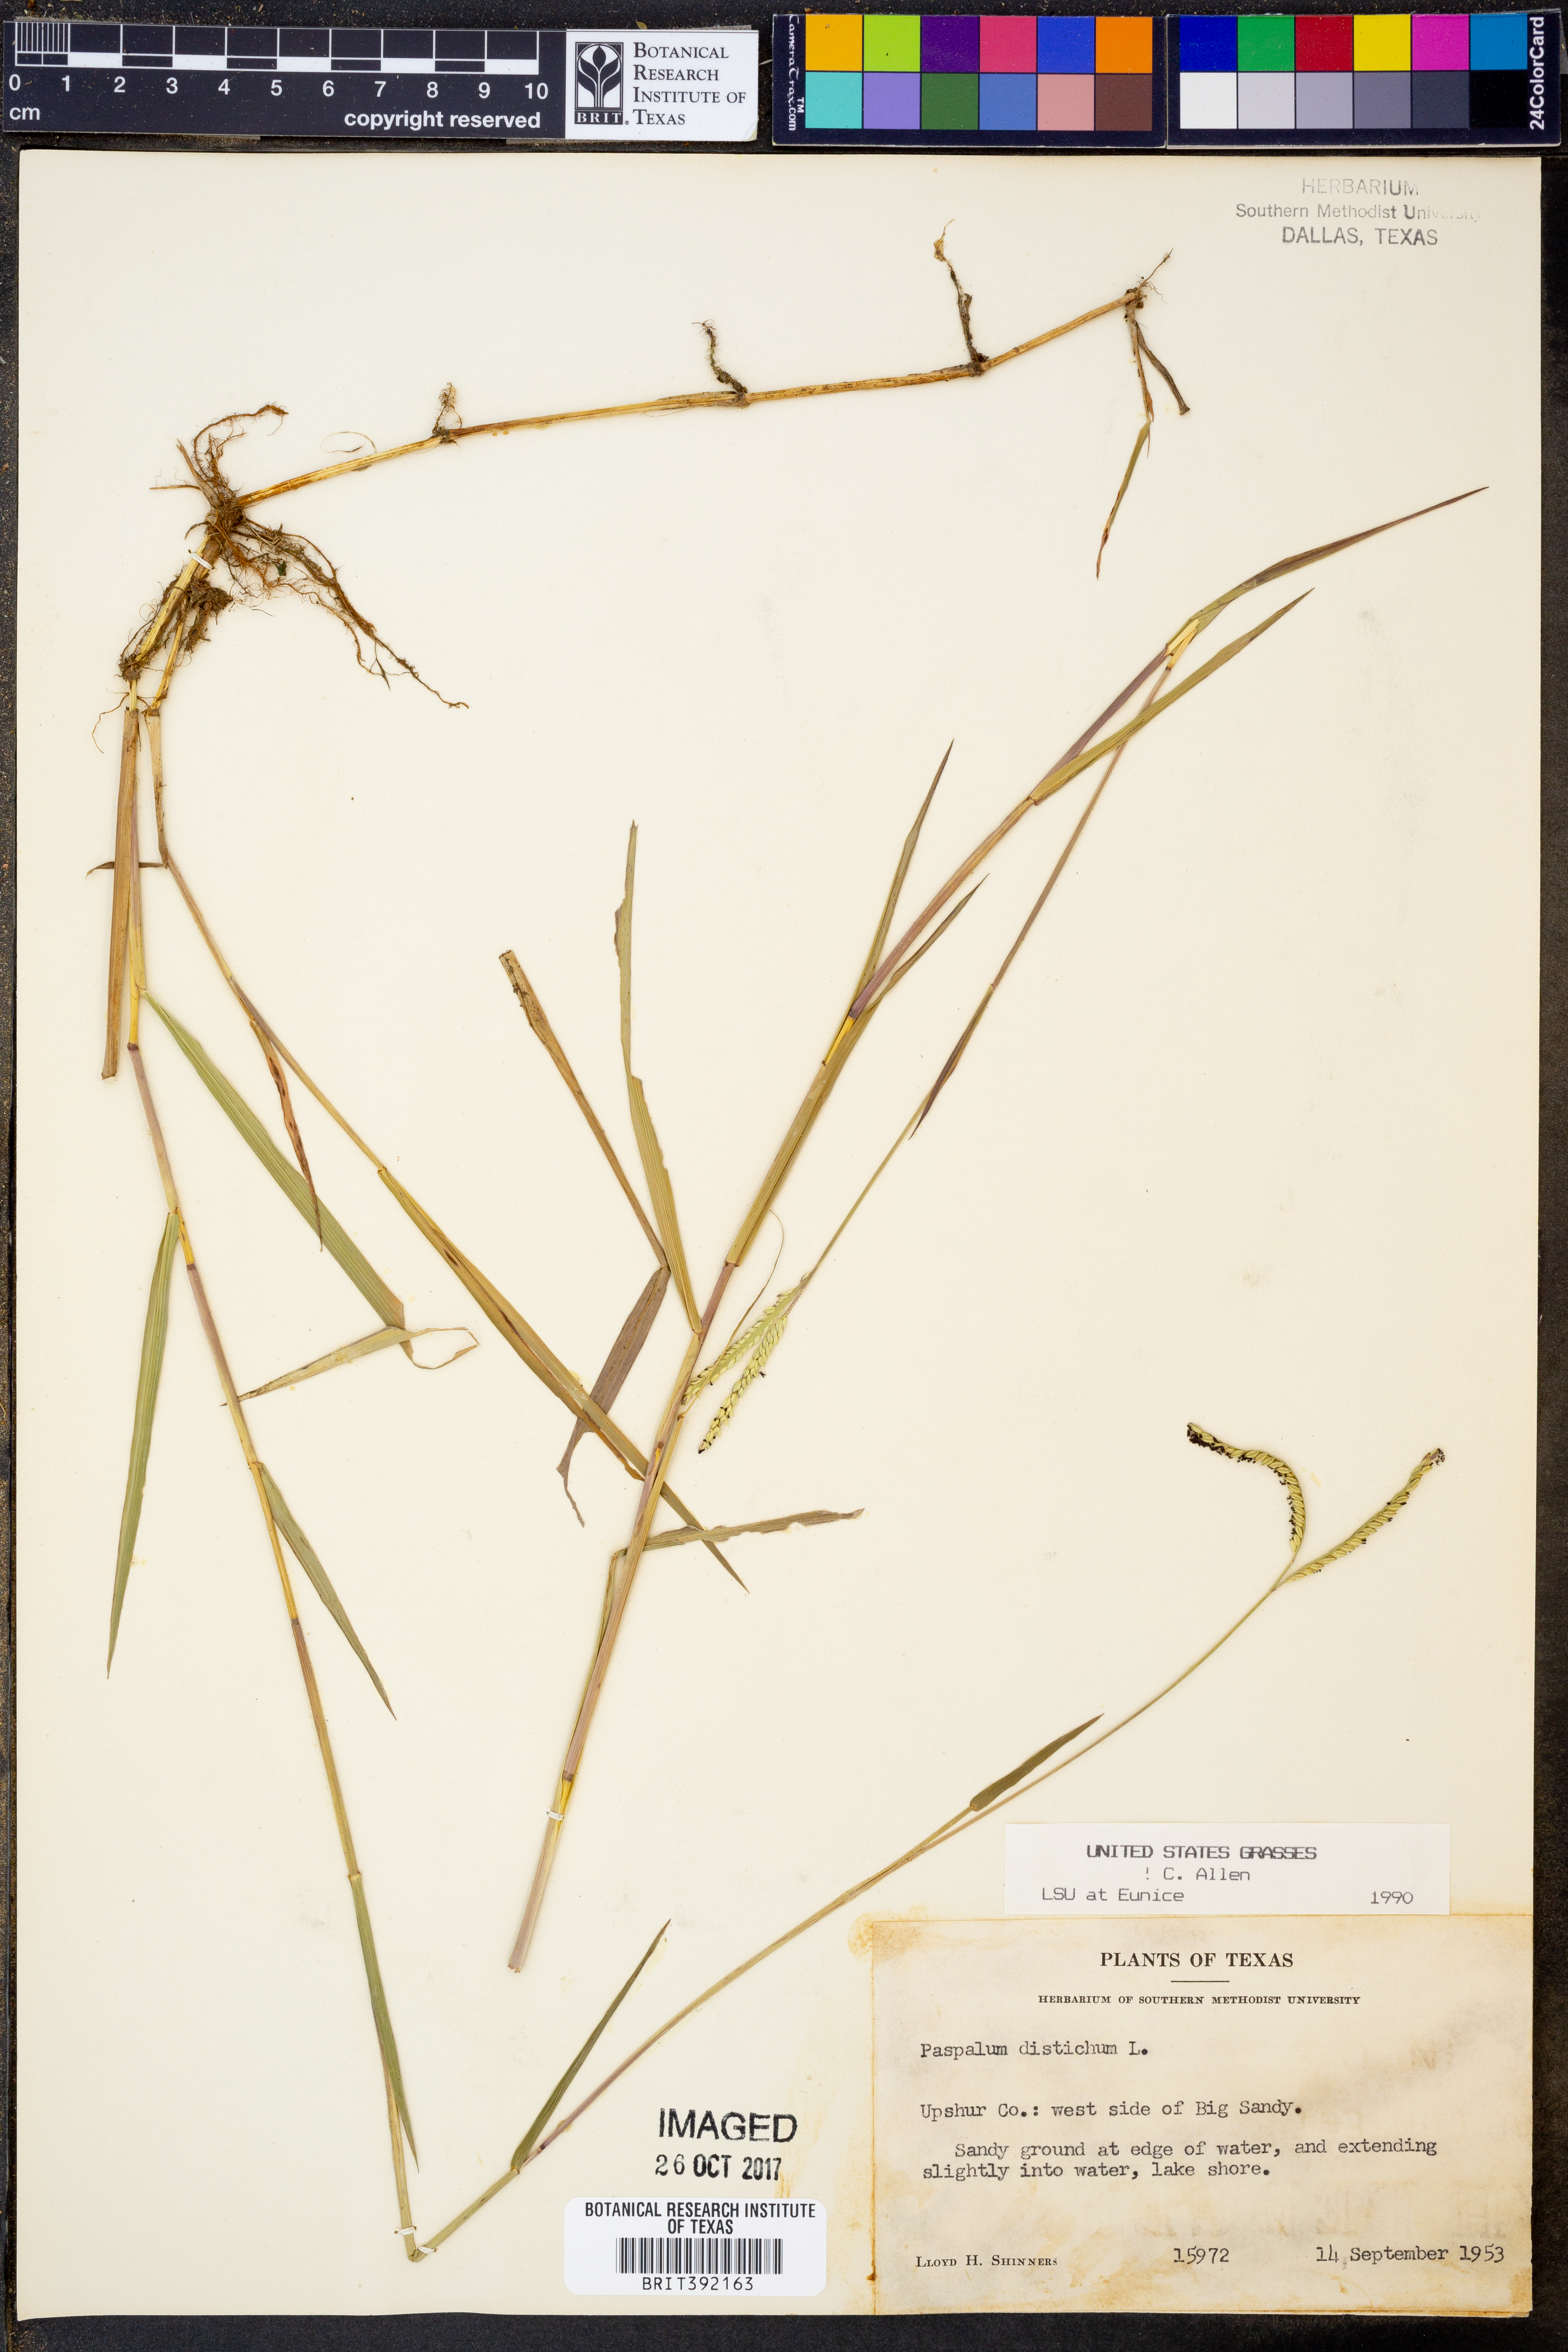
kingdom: Plantae
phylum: Tracheophyta
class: Liliopsida
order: Poales
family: Poaceae
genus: Paspalum
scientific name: Paspalum distichum
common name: Knotgrass
